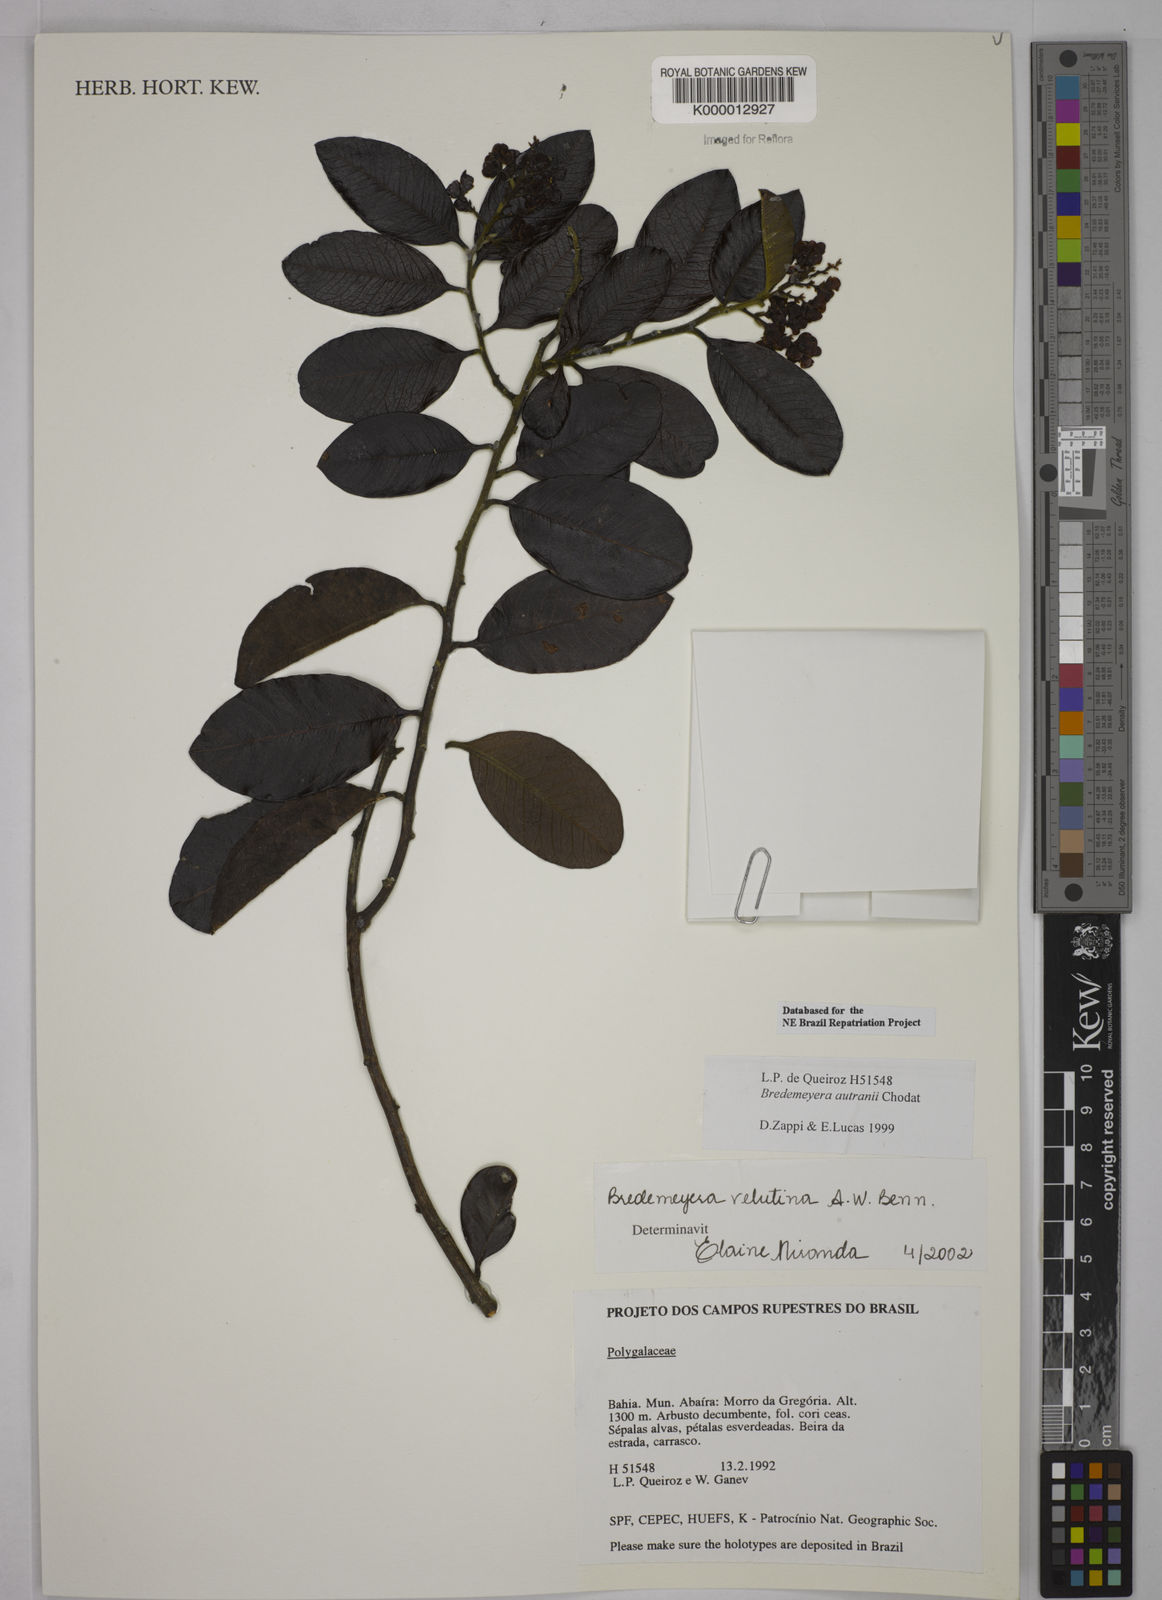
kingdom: Plantae
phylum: Tracheophyta
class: Magnoliopsida
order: Fabales
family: Polygalaceae
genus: Bredemeyera
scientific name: Bredemeyera hebeclada
